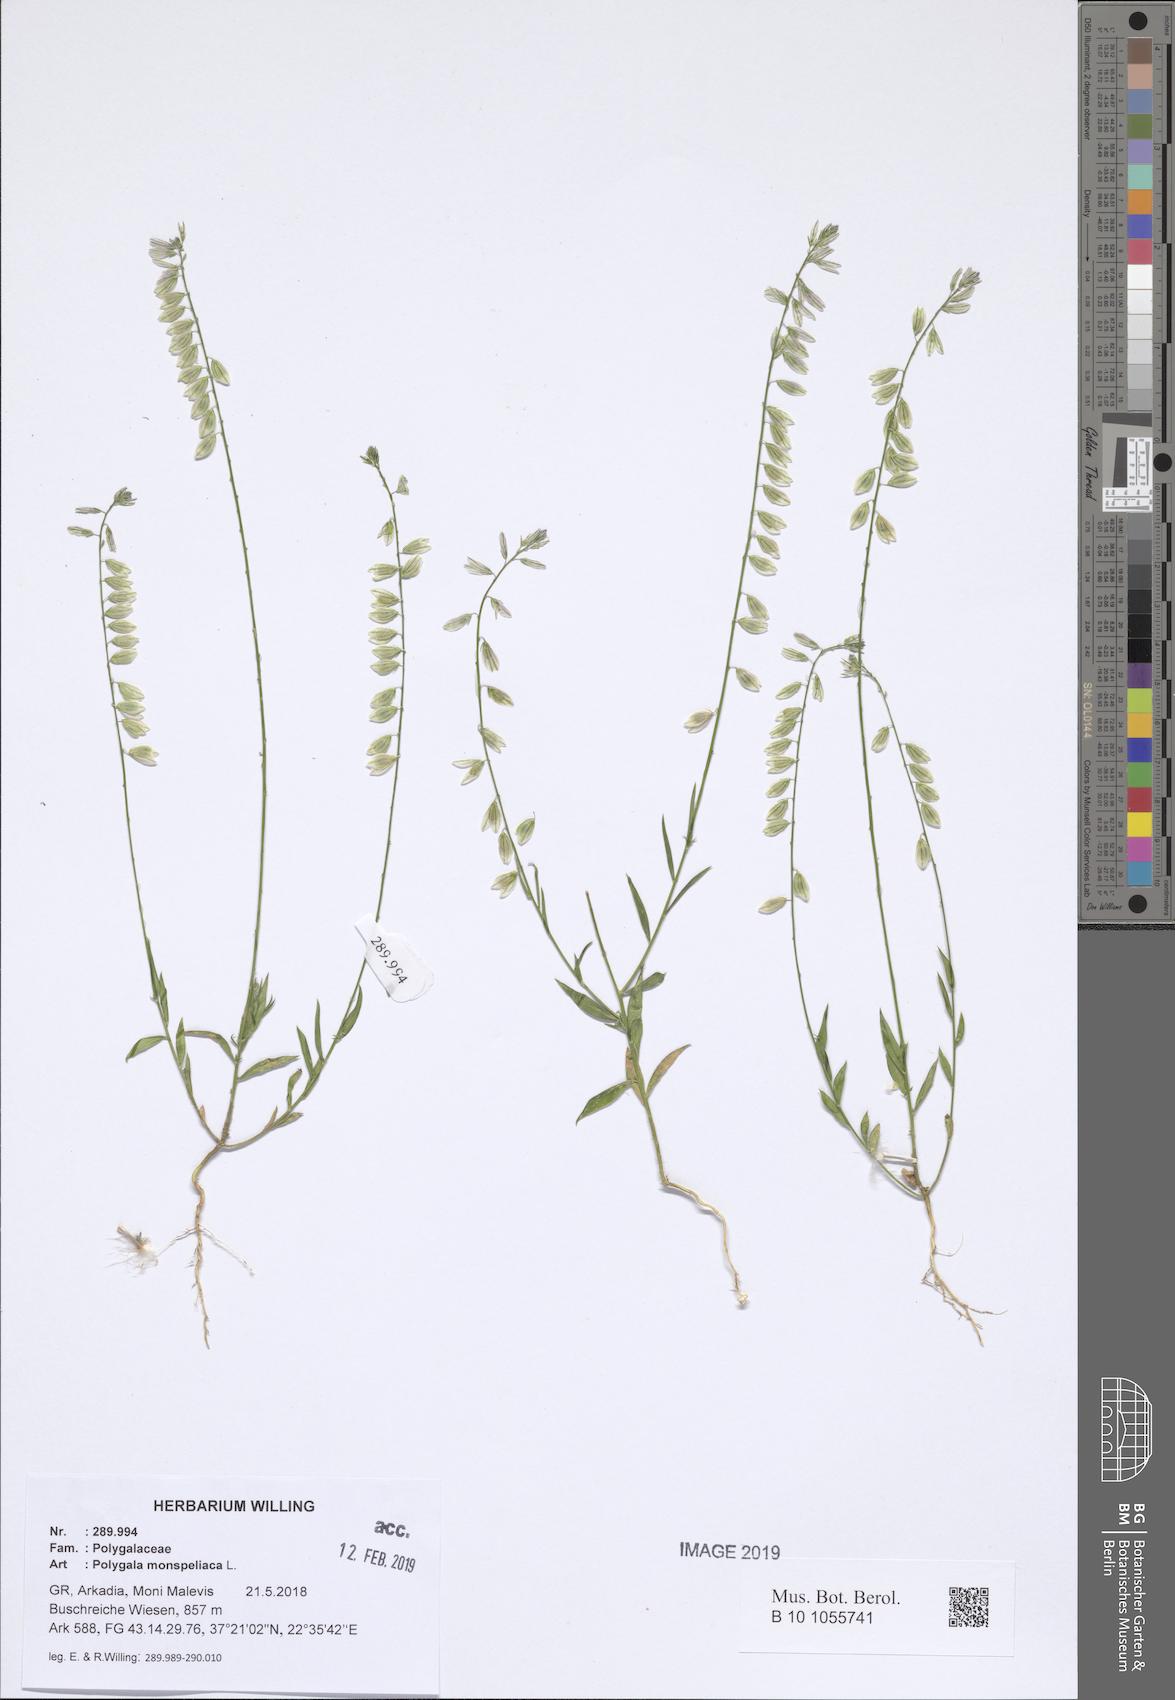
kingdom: Plantae
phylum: Tracheophyta
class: Magnoliopsida
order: Fabales
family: Polygalaceae
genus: Polygala
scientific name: Polygala monspeliaca
